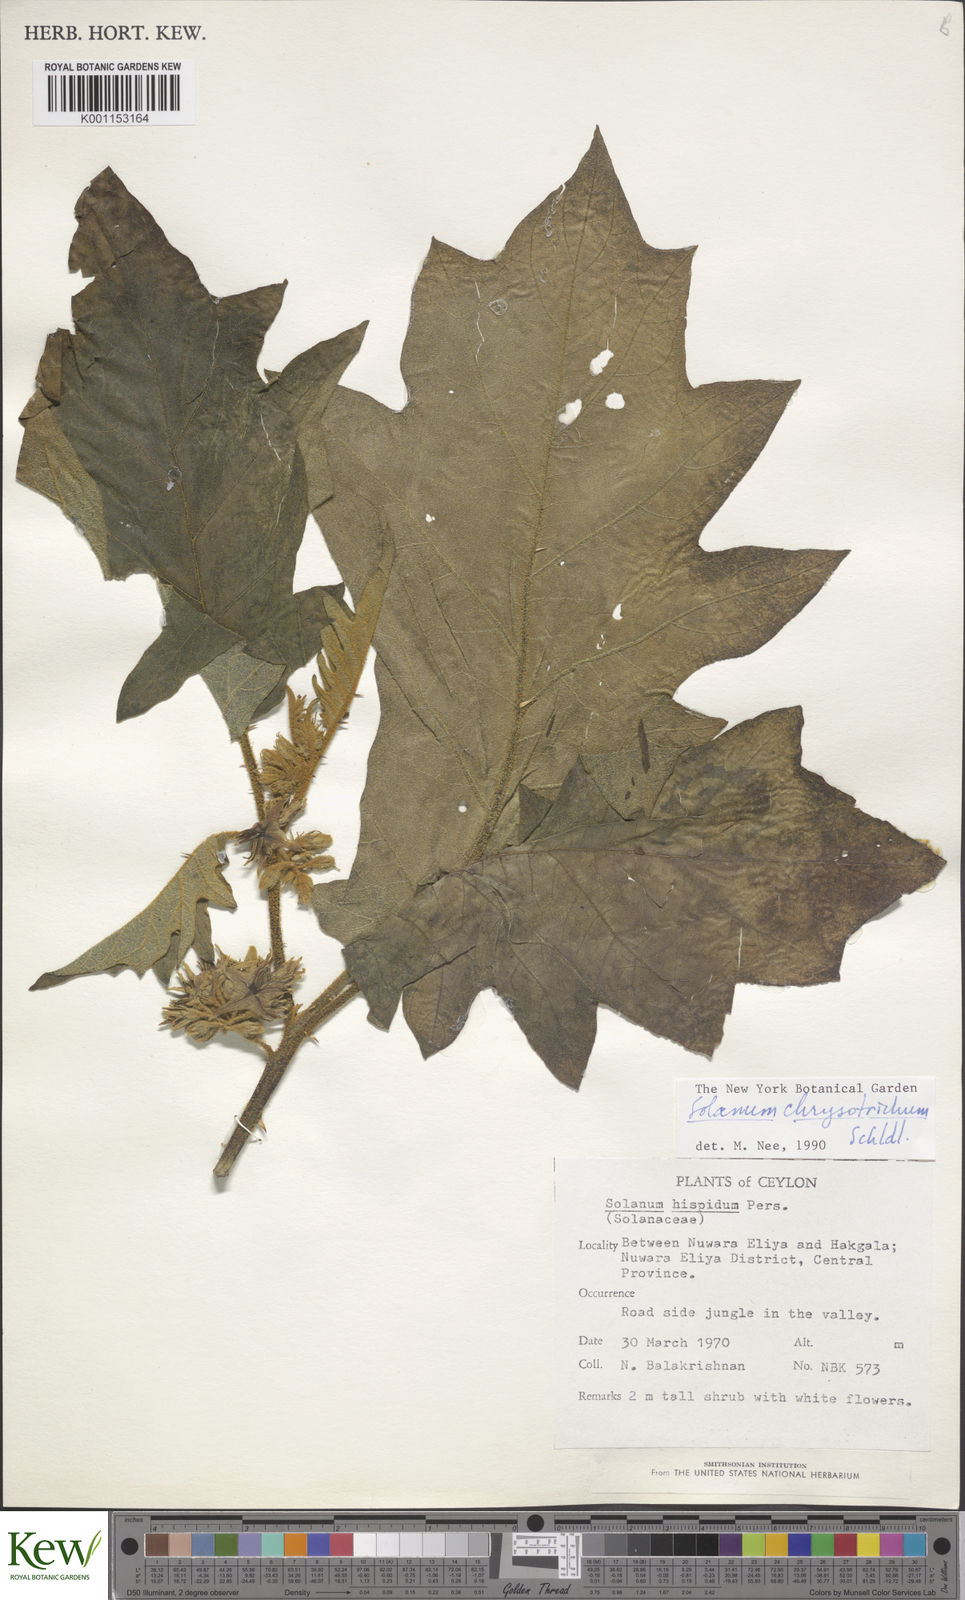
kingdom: Plantae
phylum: Tracheophyta
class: Magnoliopsida
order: Solanales
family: Solanaceae
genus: Solanum
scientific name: Solanum asperolanatum
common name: Devil's-fig
